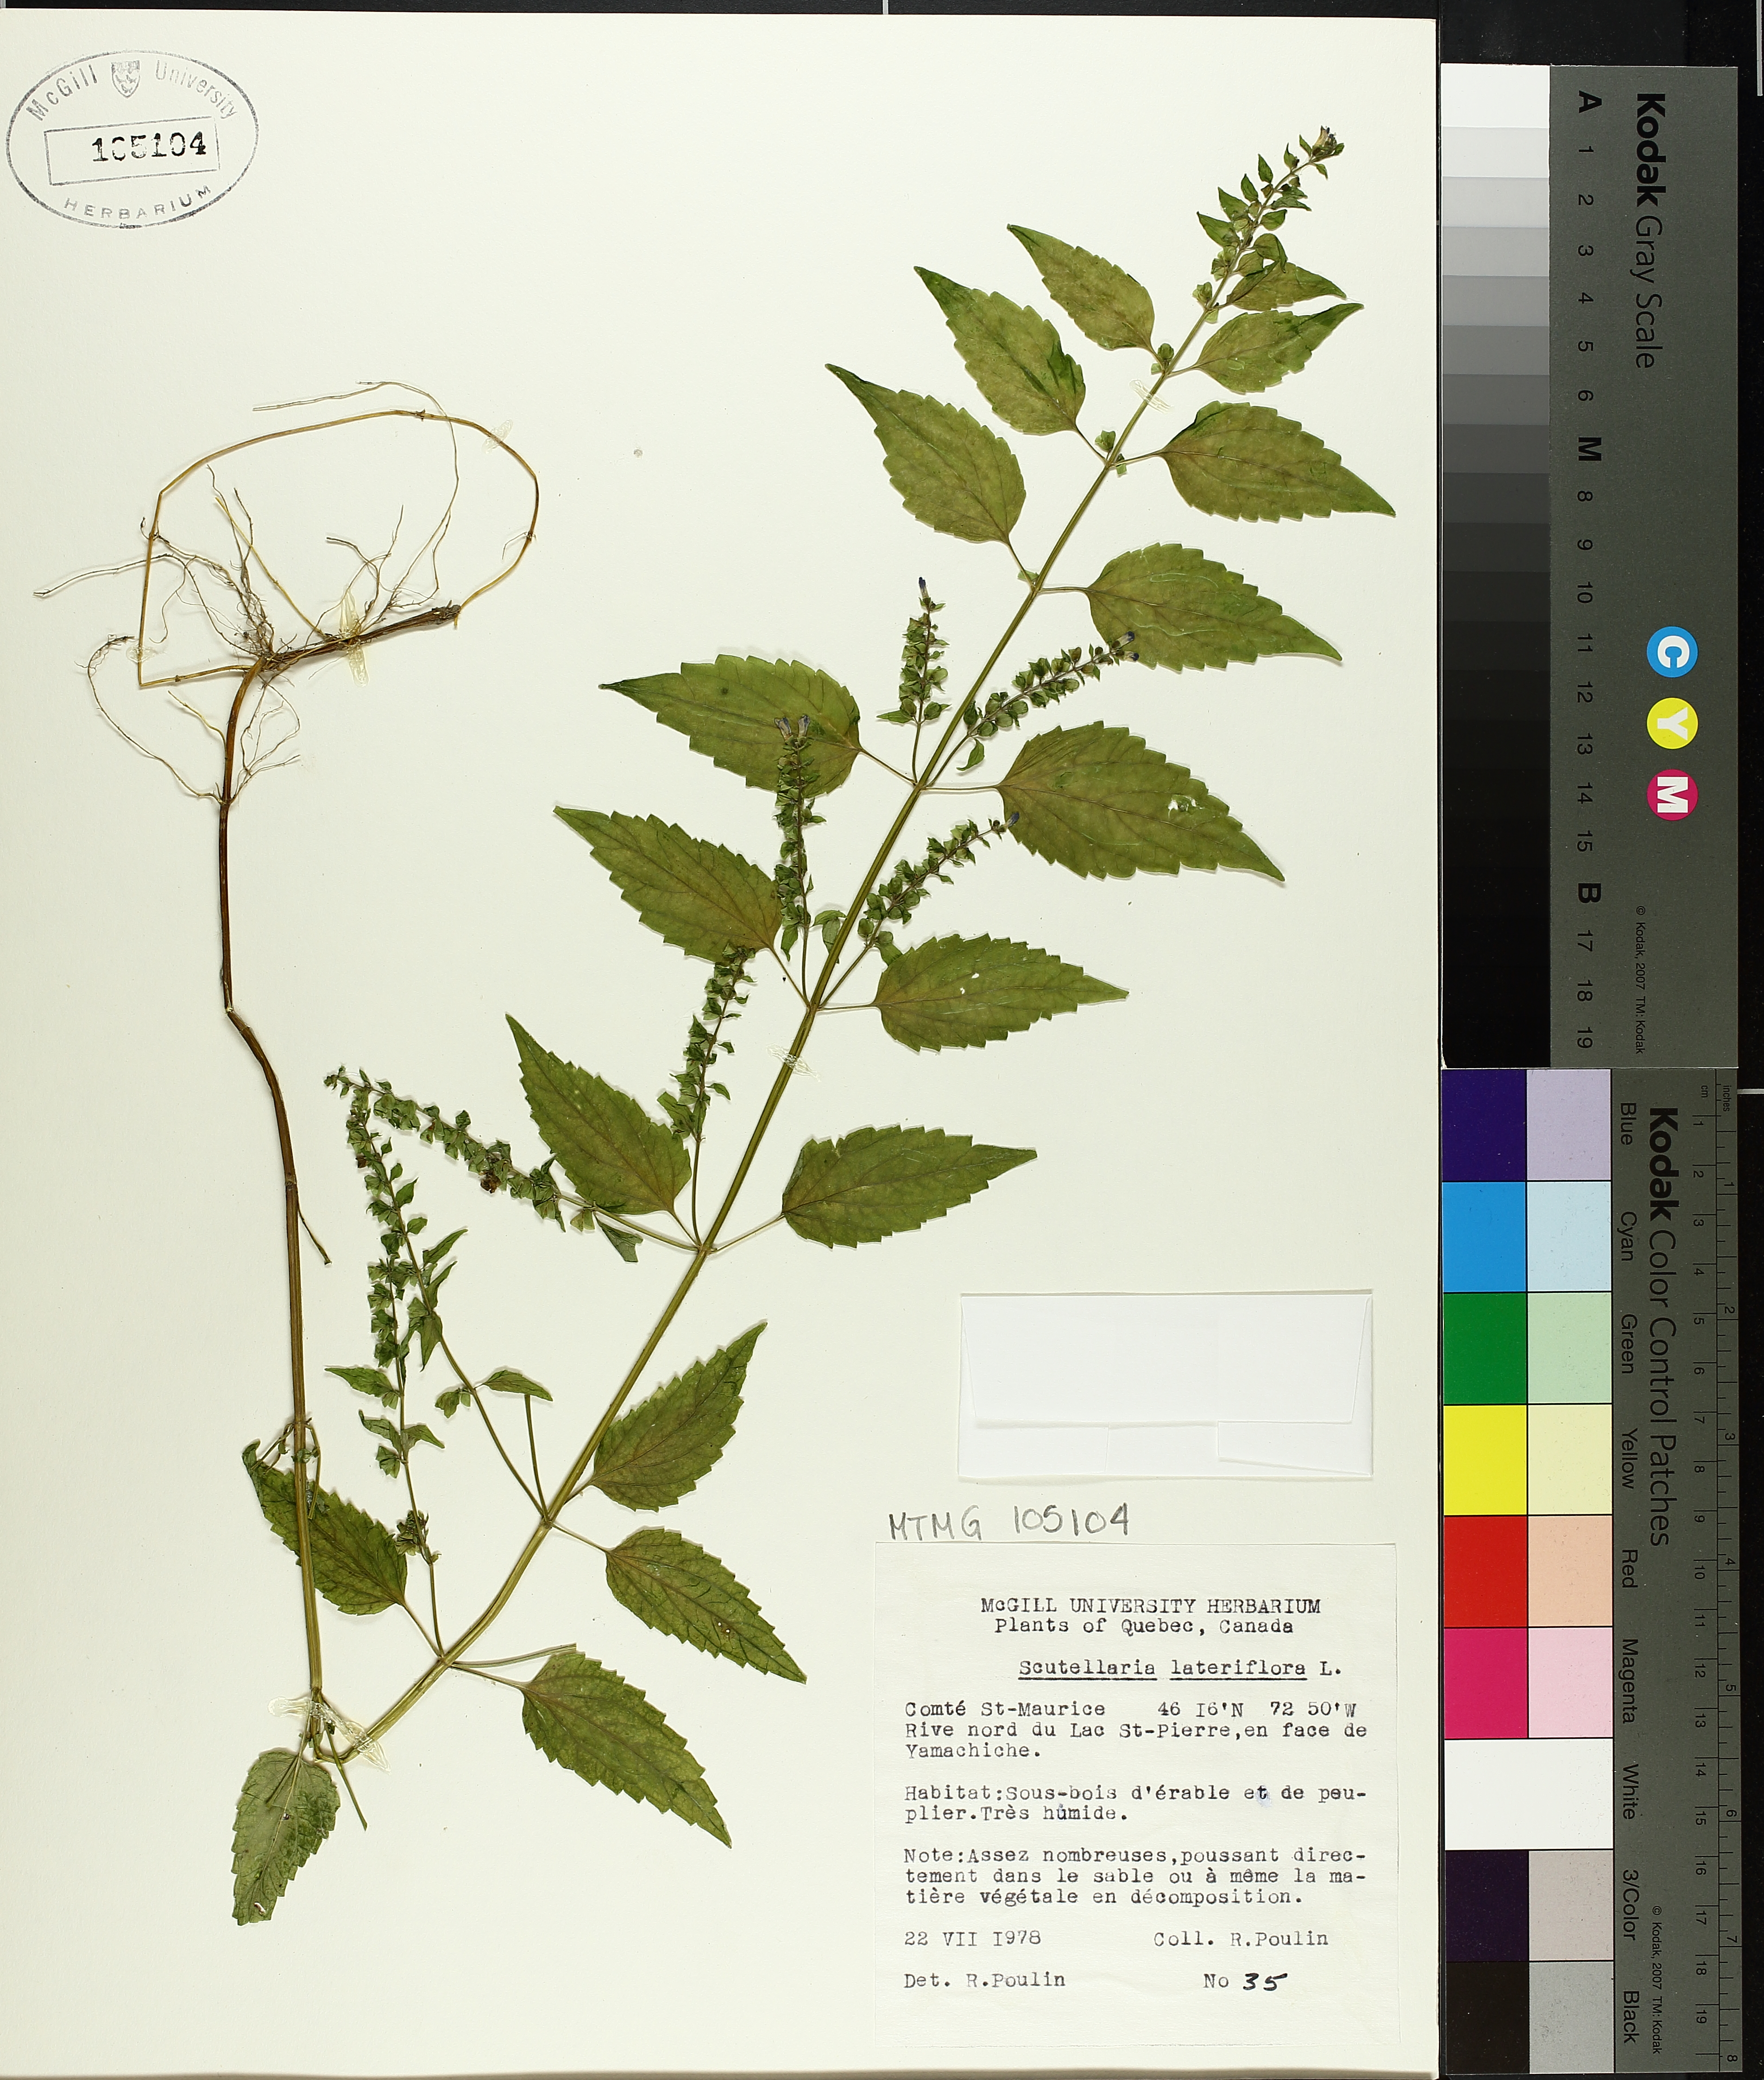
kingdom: Plantae
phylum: Tracheophyta
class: Magnoliopsida
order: Lamiales
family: Lamiaceae
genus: Scutellaria
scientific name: Scutellaria lateriflora
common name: Blue skullcap
